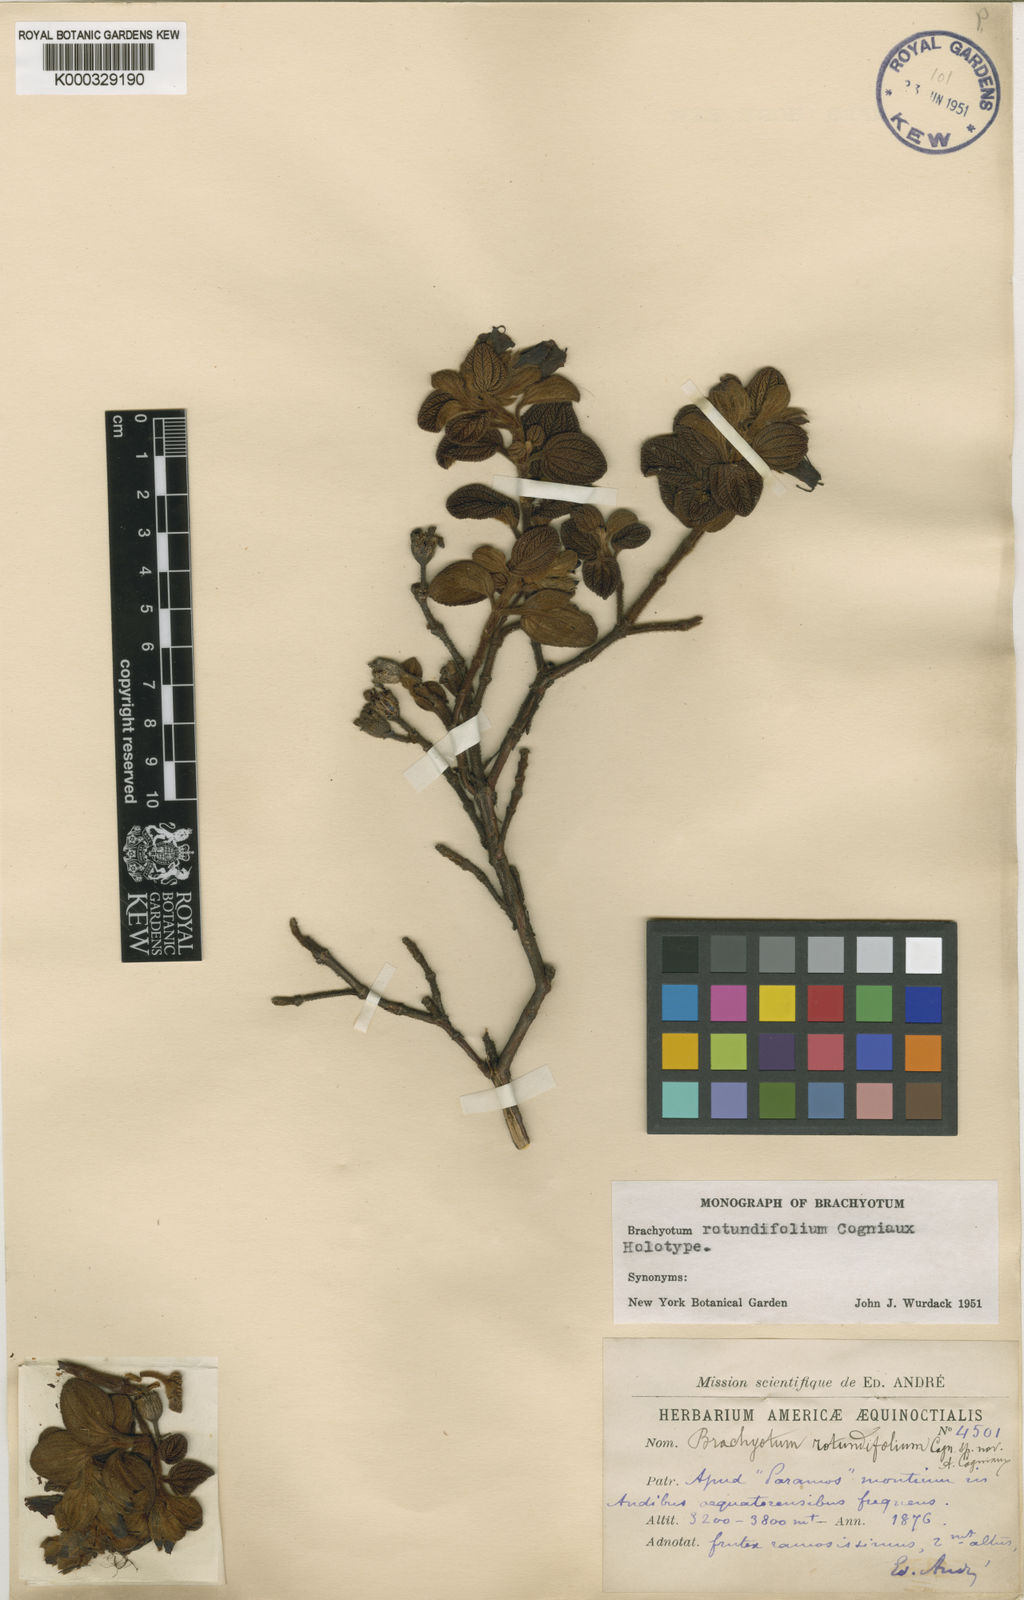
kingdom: Plantae
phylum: Tracheophyta
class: Magnoliopsida
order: Myrtales
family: Melastomataceae
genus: Brachyotum
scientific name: Brachyotum rotundifolium
